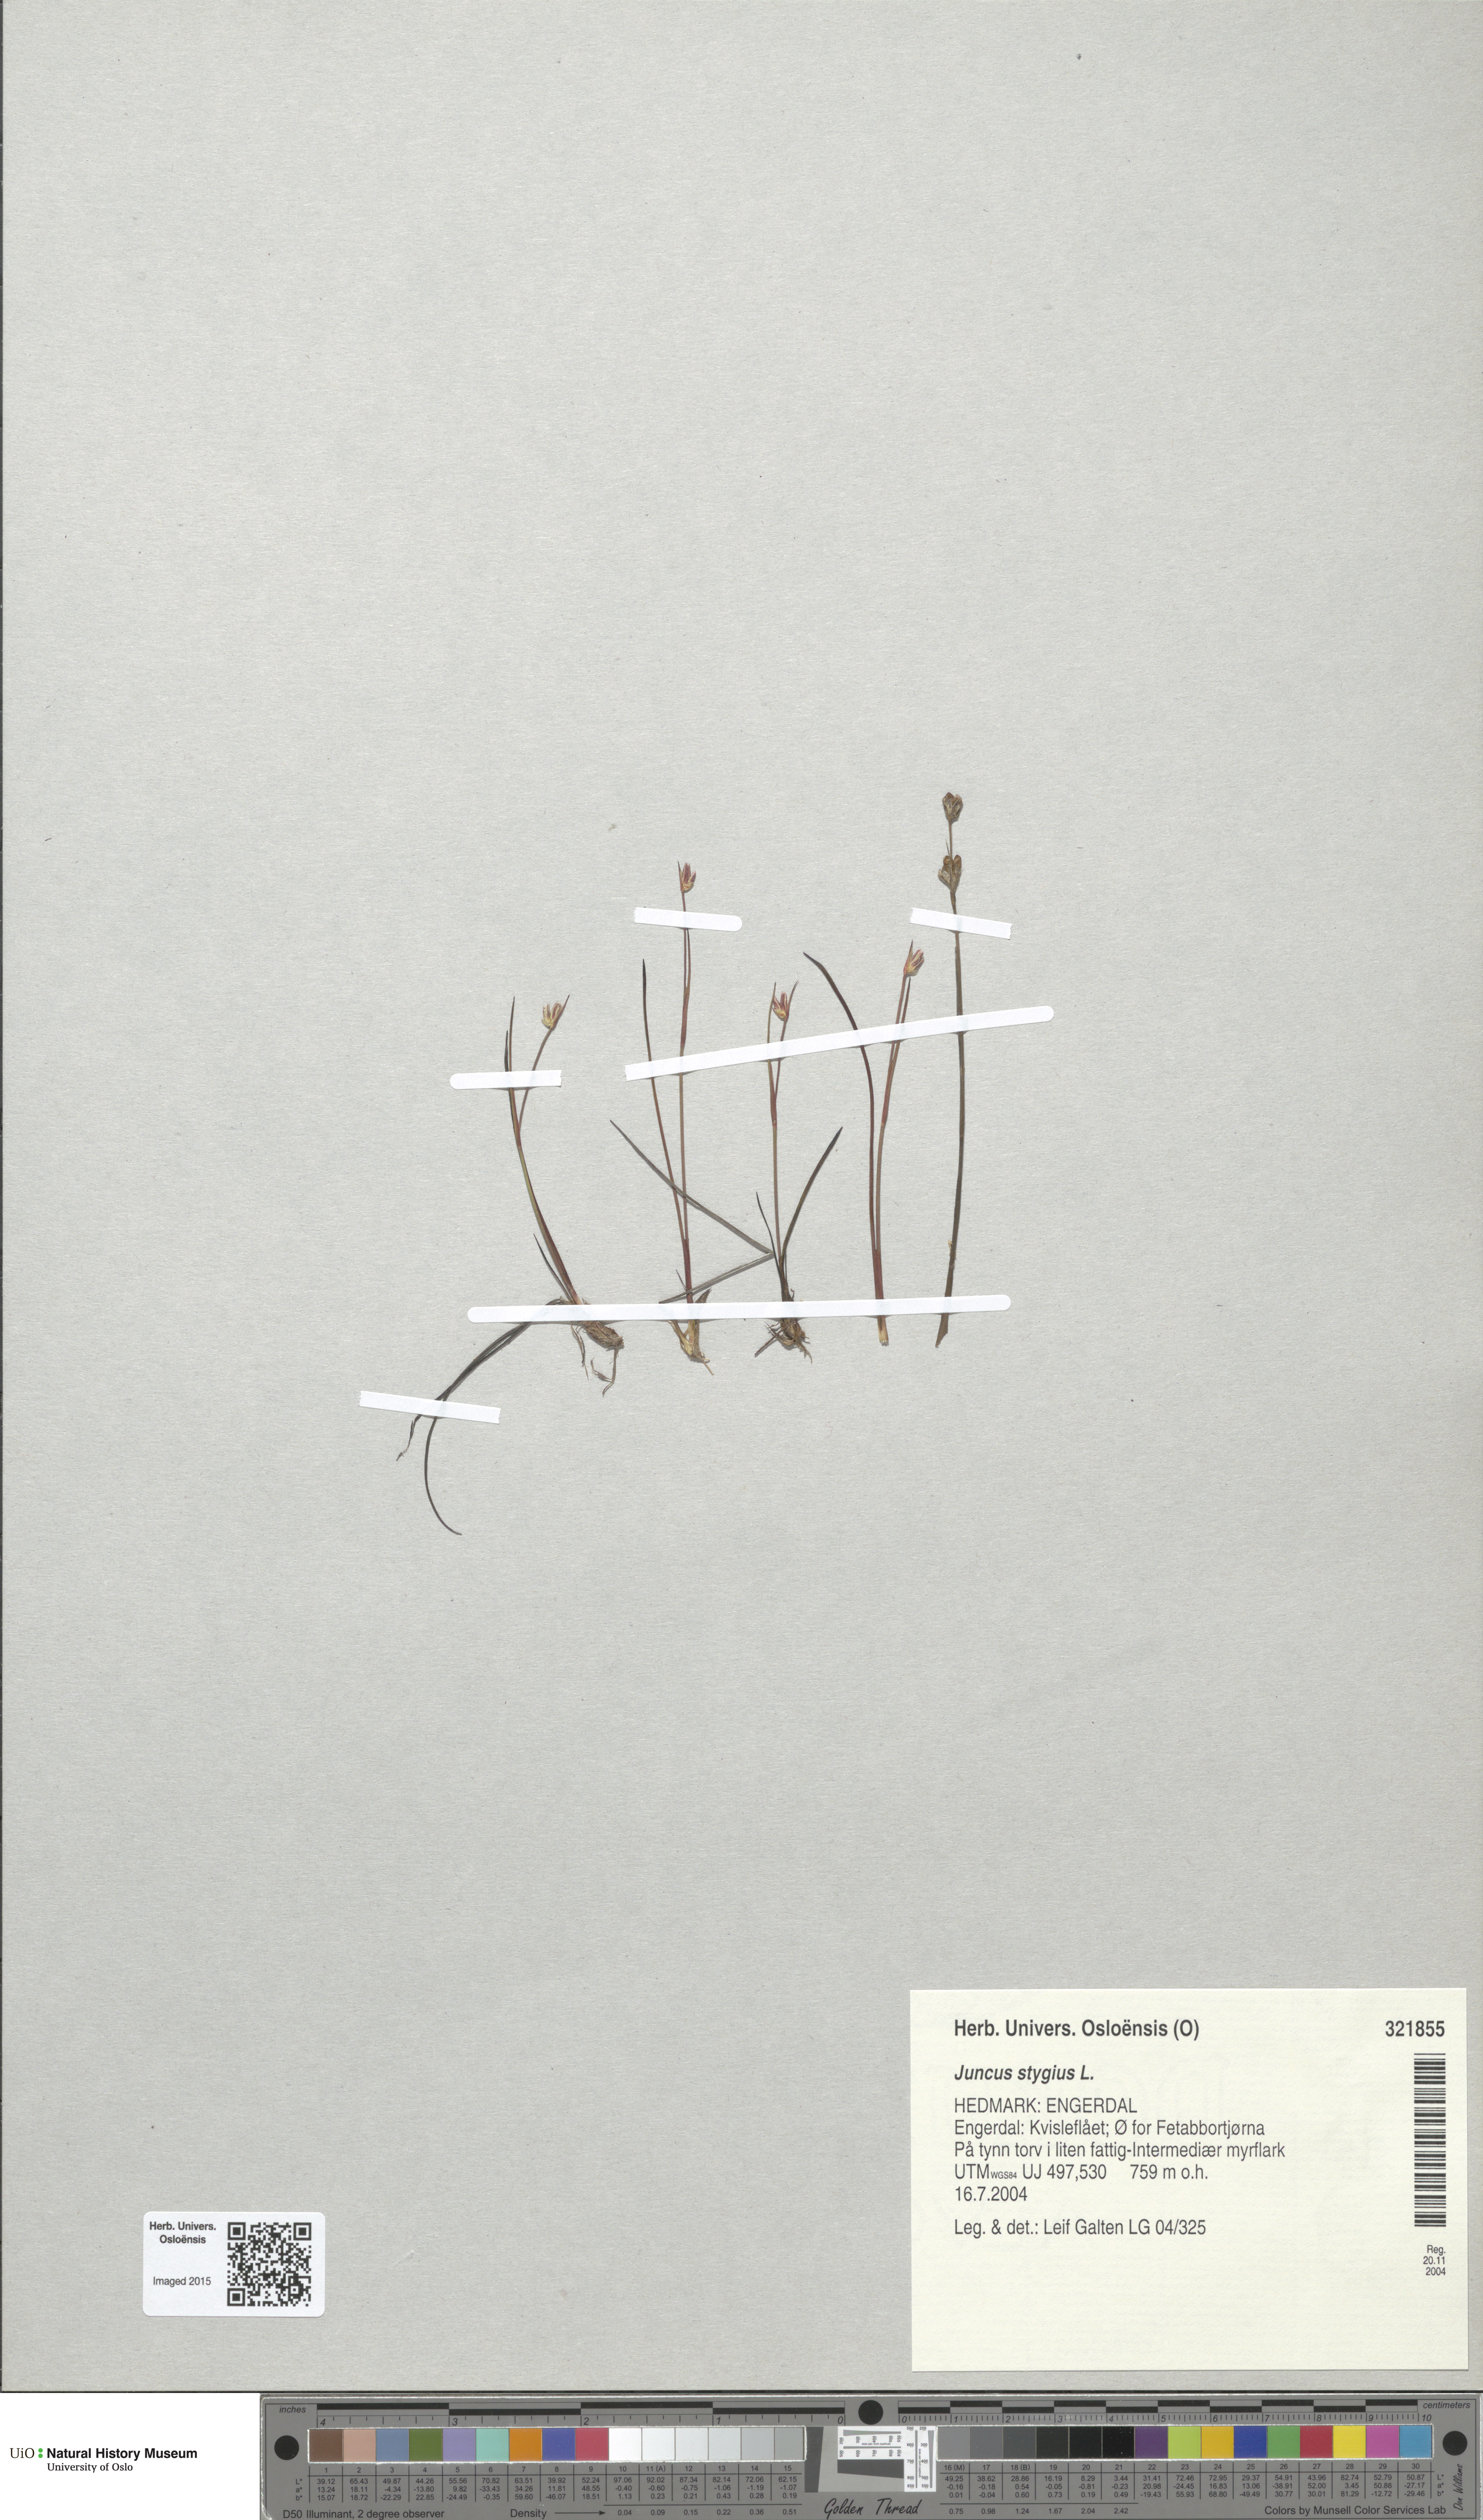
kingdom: Plantae
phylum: Tracheophyta
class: Liliopsida
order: Poales
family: Juncaceae
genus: Juncus
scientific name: Juncus stygius
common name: Bog rush
